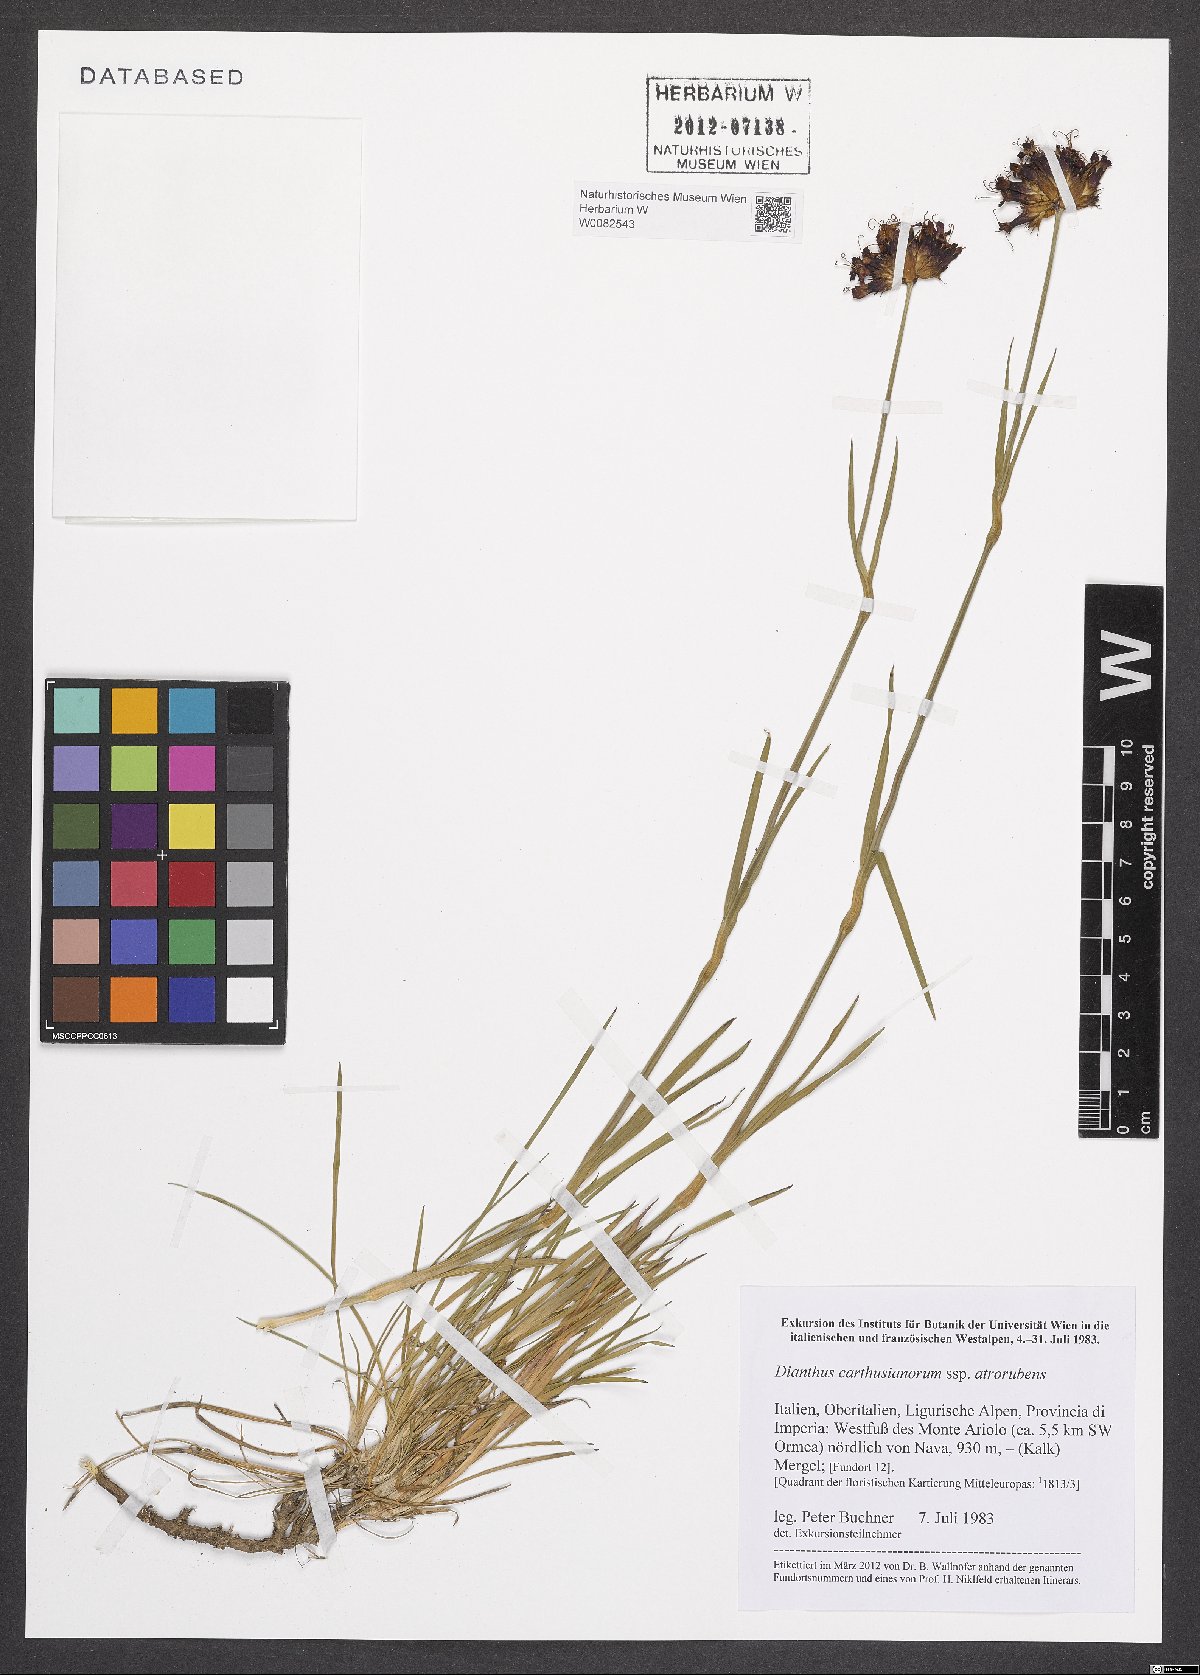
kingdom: Plantae
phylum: Tracheophyta
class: Magnoliopsida
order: Caryophyllales
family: Caryophyllaceae
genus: Dianthus
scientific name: Dianthus carthusianorum
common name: Carthusian pink
